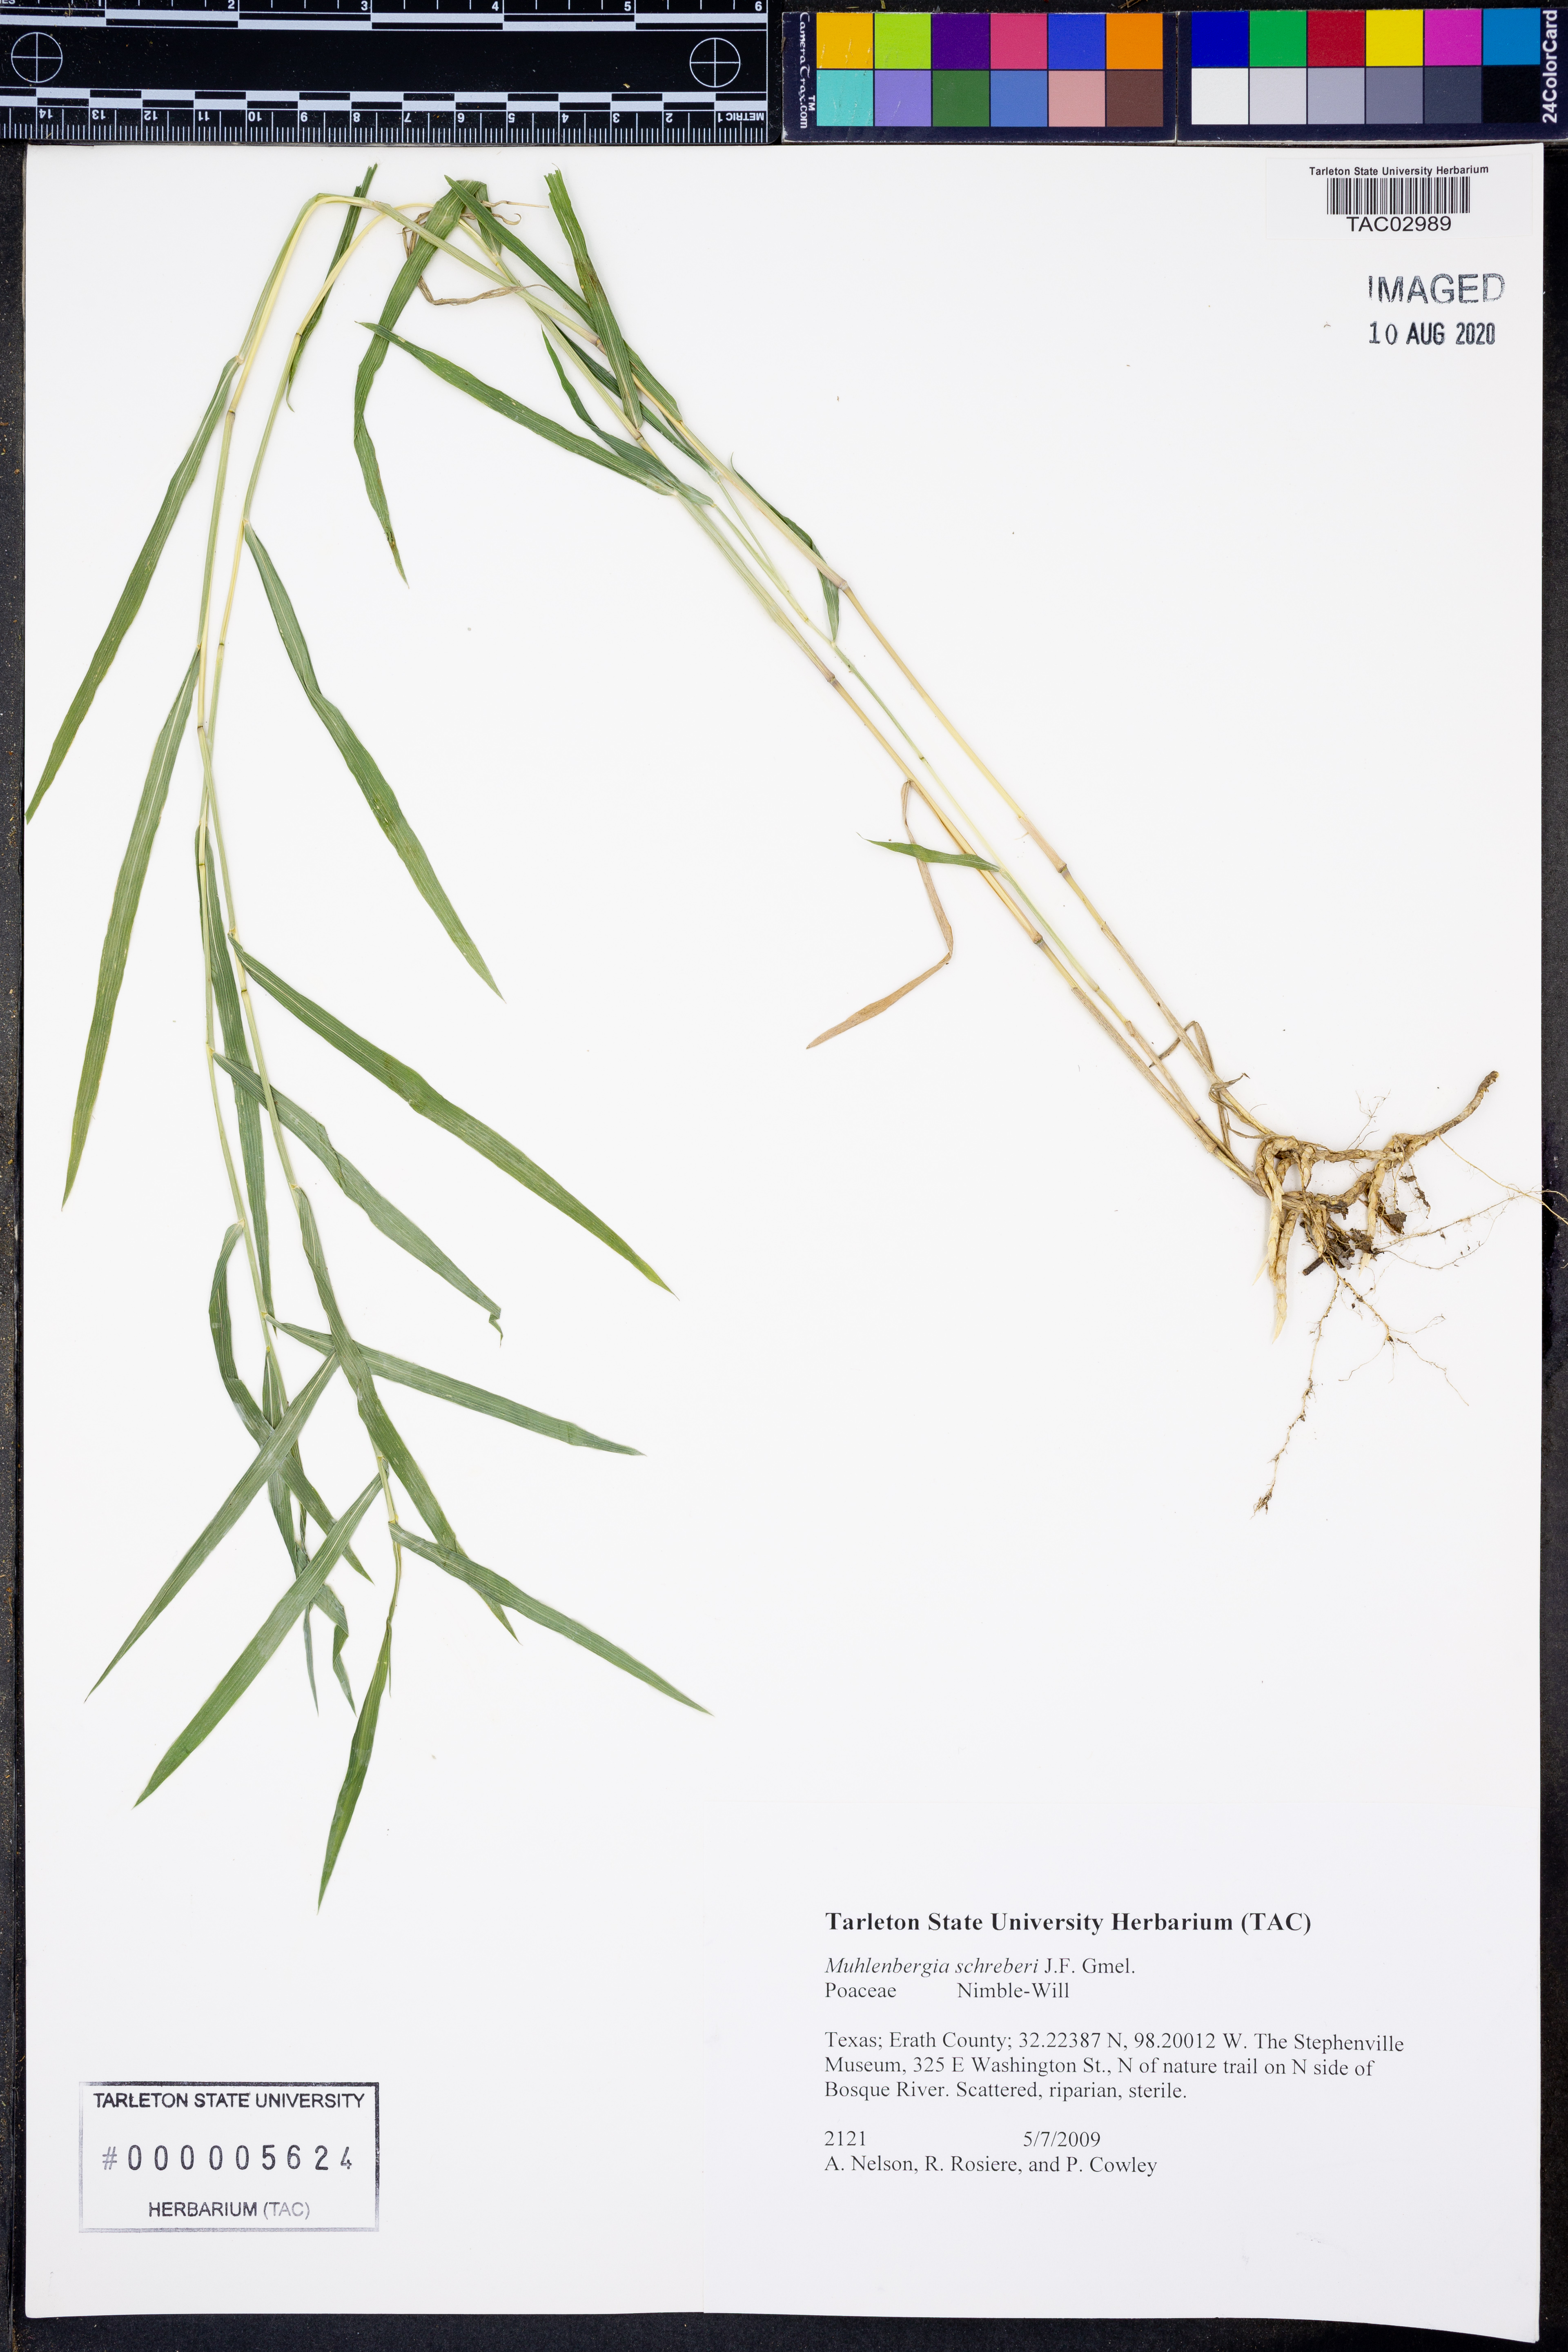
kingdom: Plantae
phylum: Tracheophyta
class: Liliopsida
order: Poales
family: Poaceae
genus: Muhlenbergia
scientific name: Muhlenbergia schreberi
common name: Nimblewill
